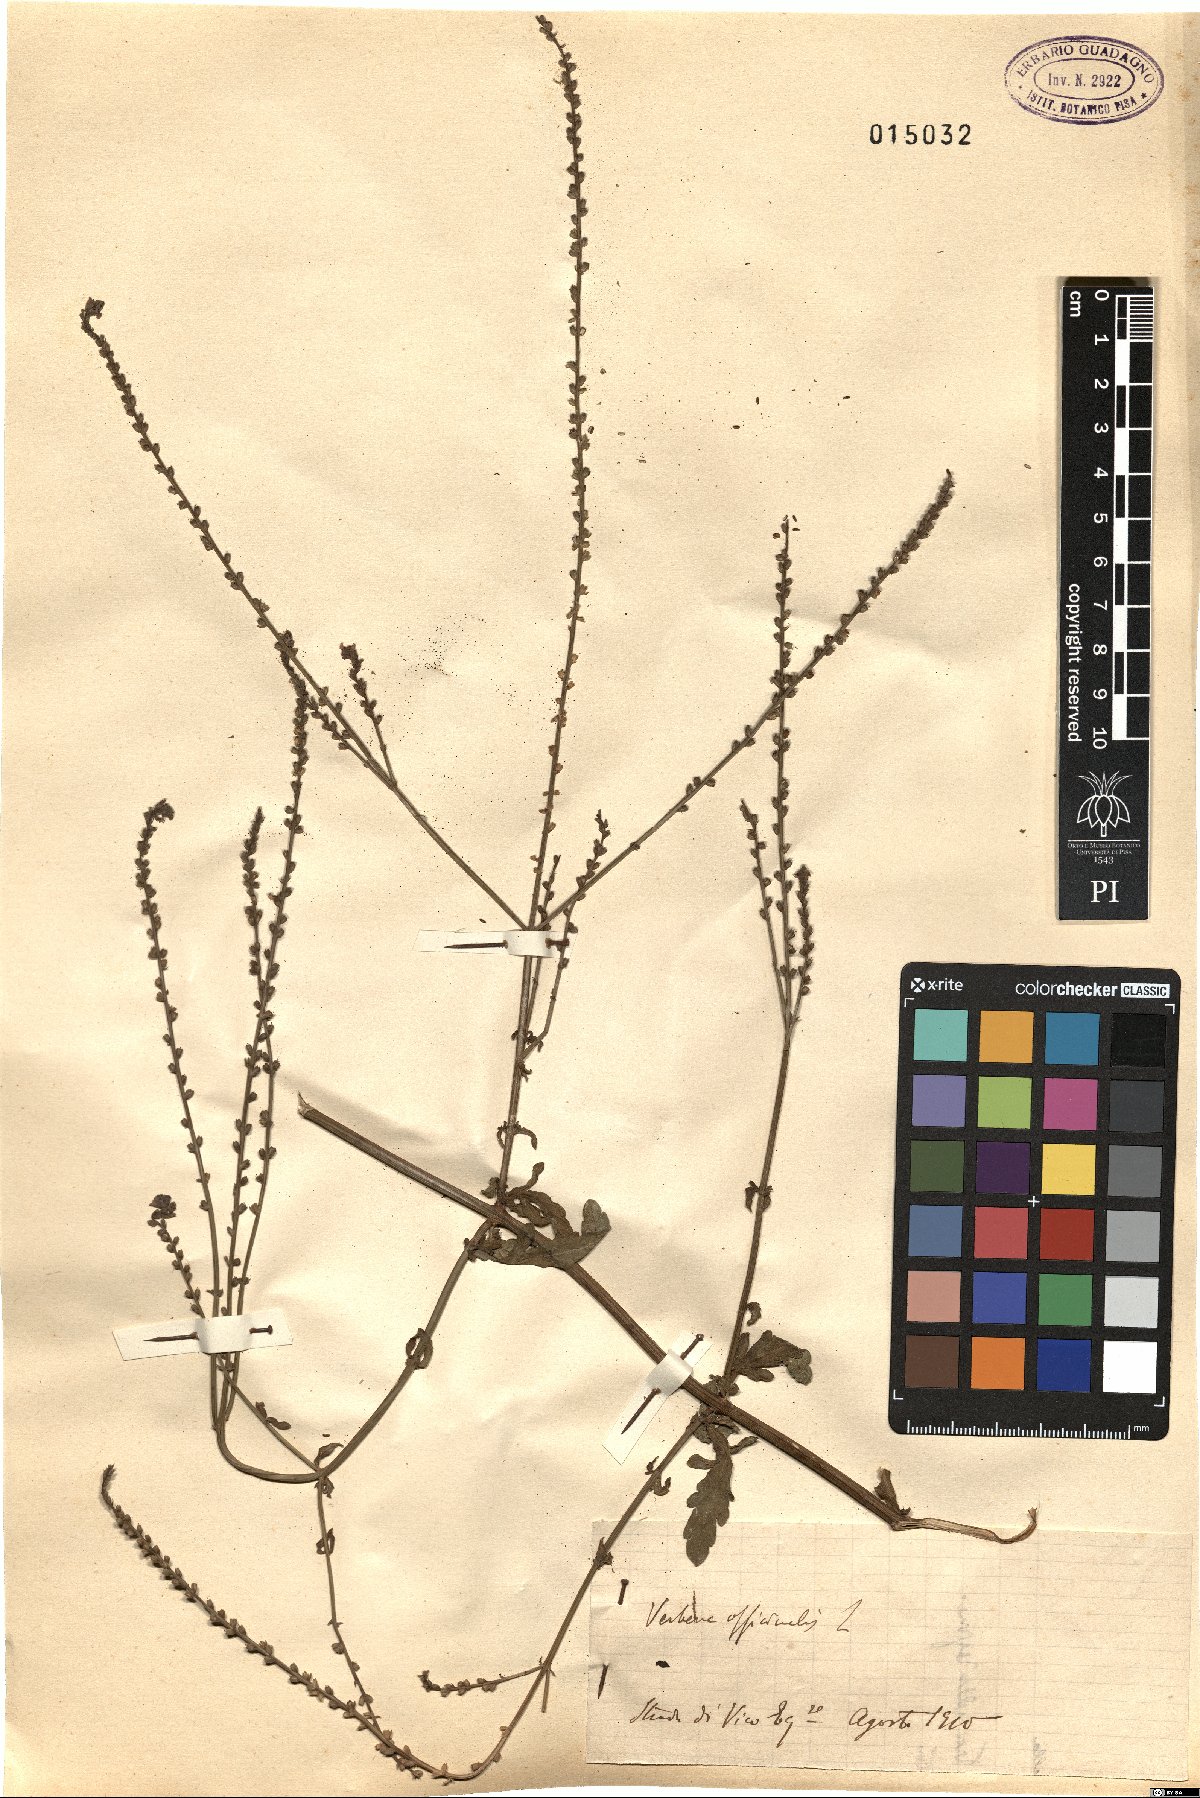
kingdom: Plantae
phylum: Tracheophyta
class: Magnoliopsida
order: Lamiales
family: Verbenaceae
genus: Verbena
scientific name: Verbena officinalis
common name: Vervain
